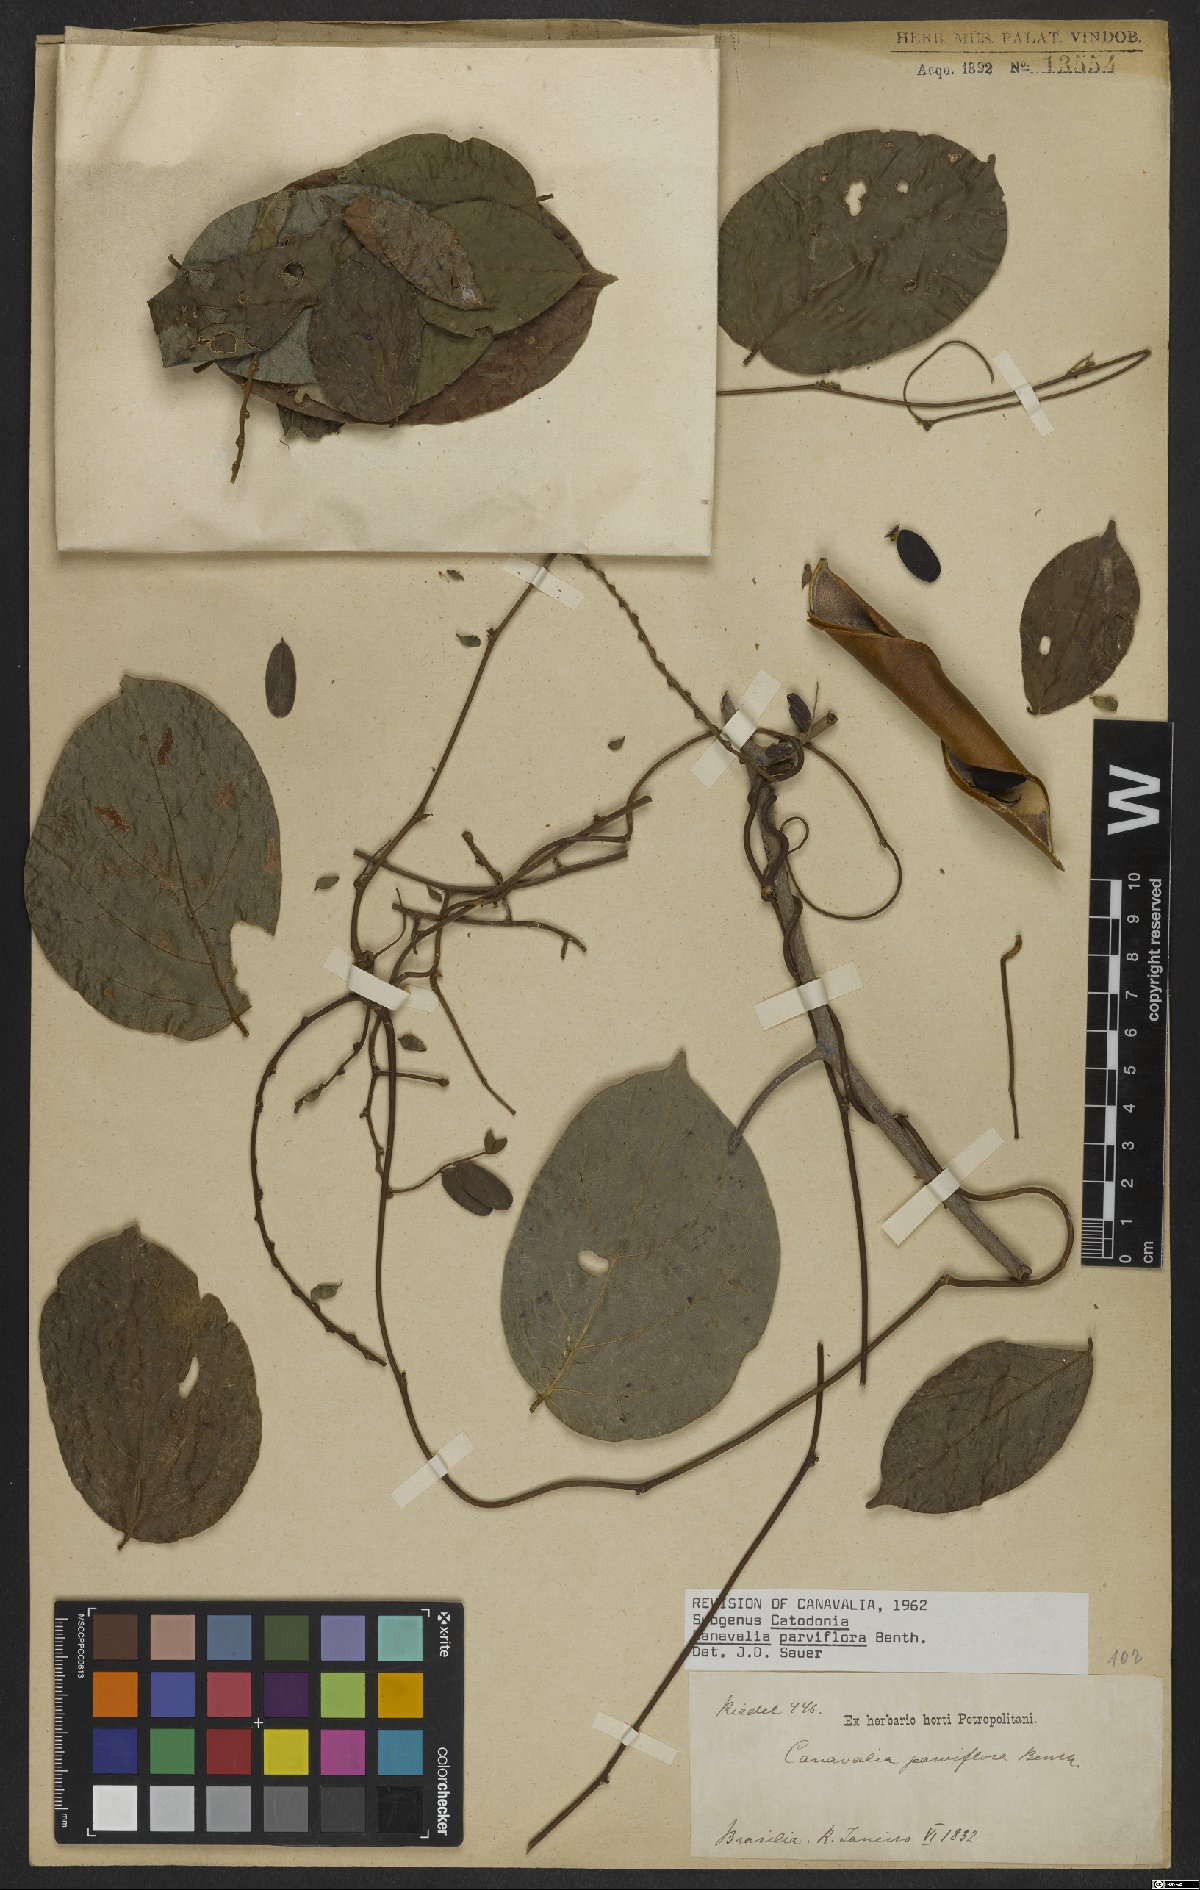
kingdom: Plantae
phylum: Tracheophyta
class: Magnoliopsida
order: Fabales
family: Fabaceae
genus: Canavalia
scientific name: Canavalia parviflora
